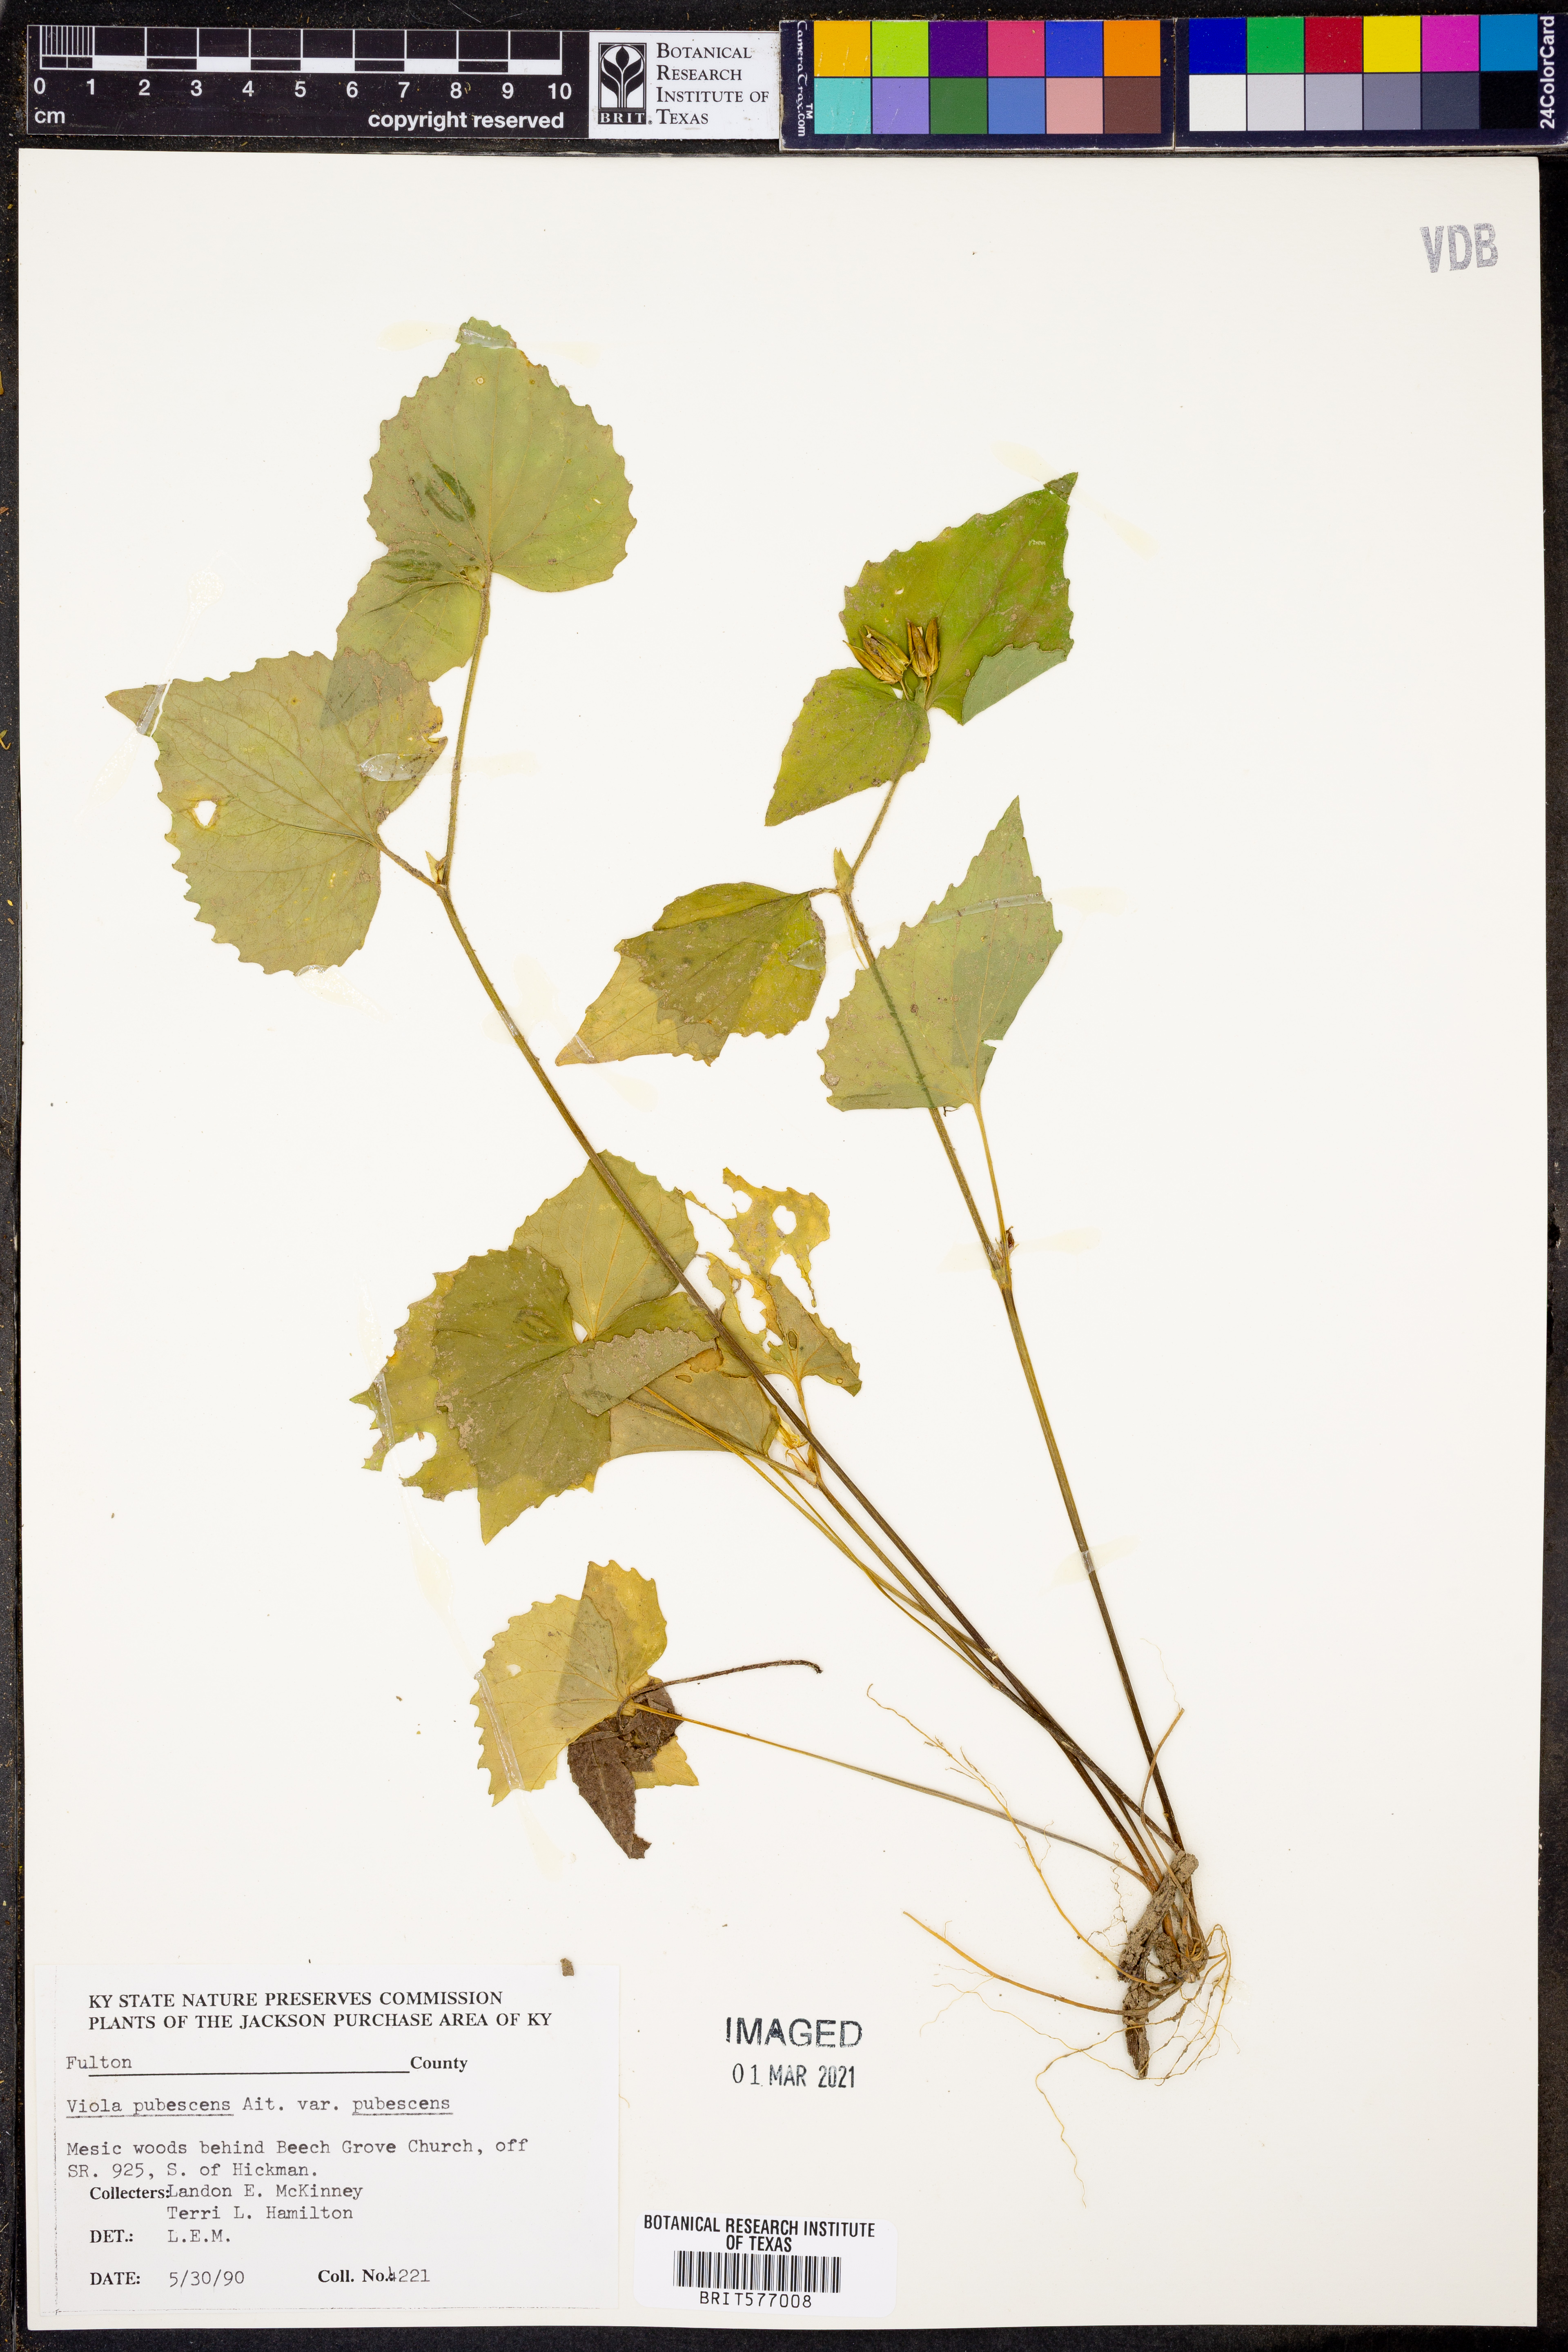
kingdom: Plantae
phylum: Tracheophyta
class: Magnoliopsida
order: Malpighiales
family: Violaceae
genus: Viola
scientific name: Viola pubescens
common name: Yellow forest violet
